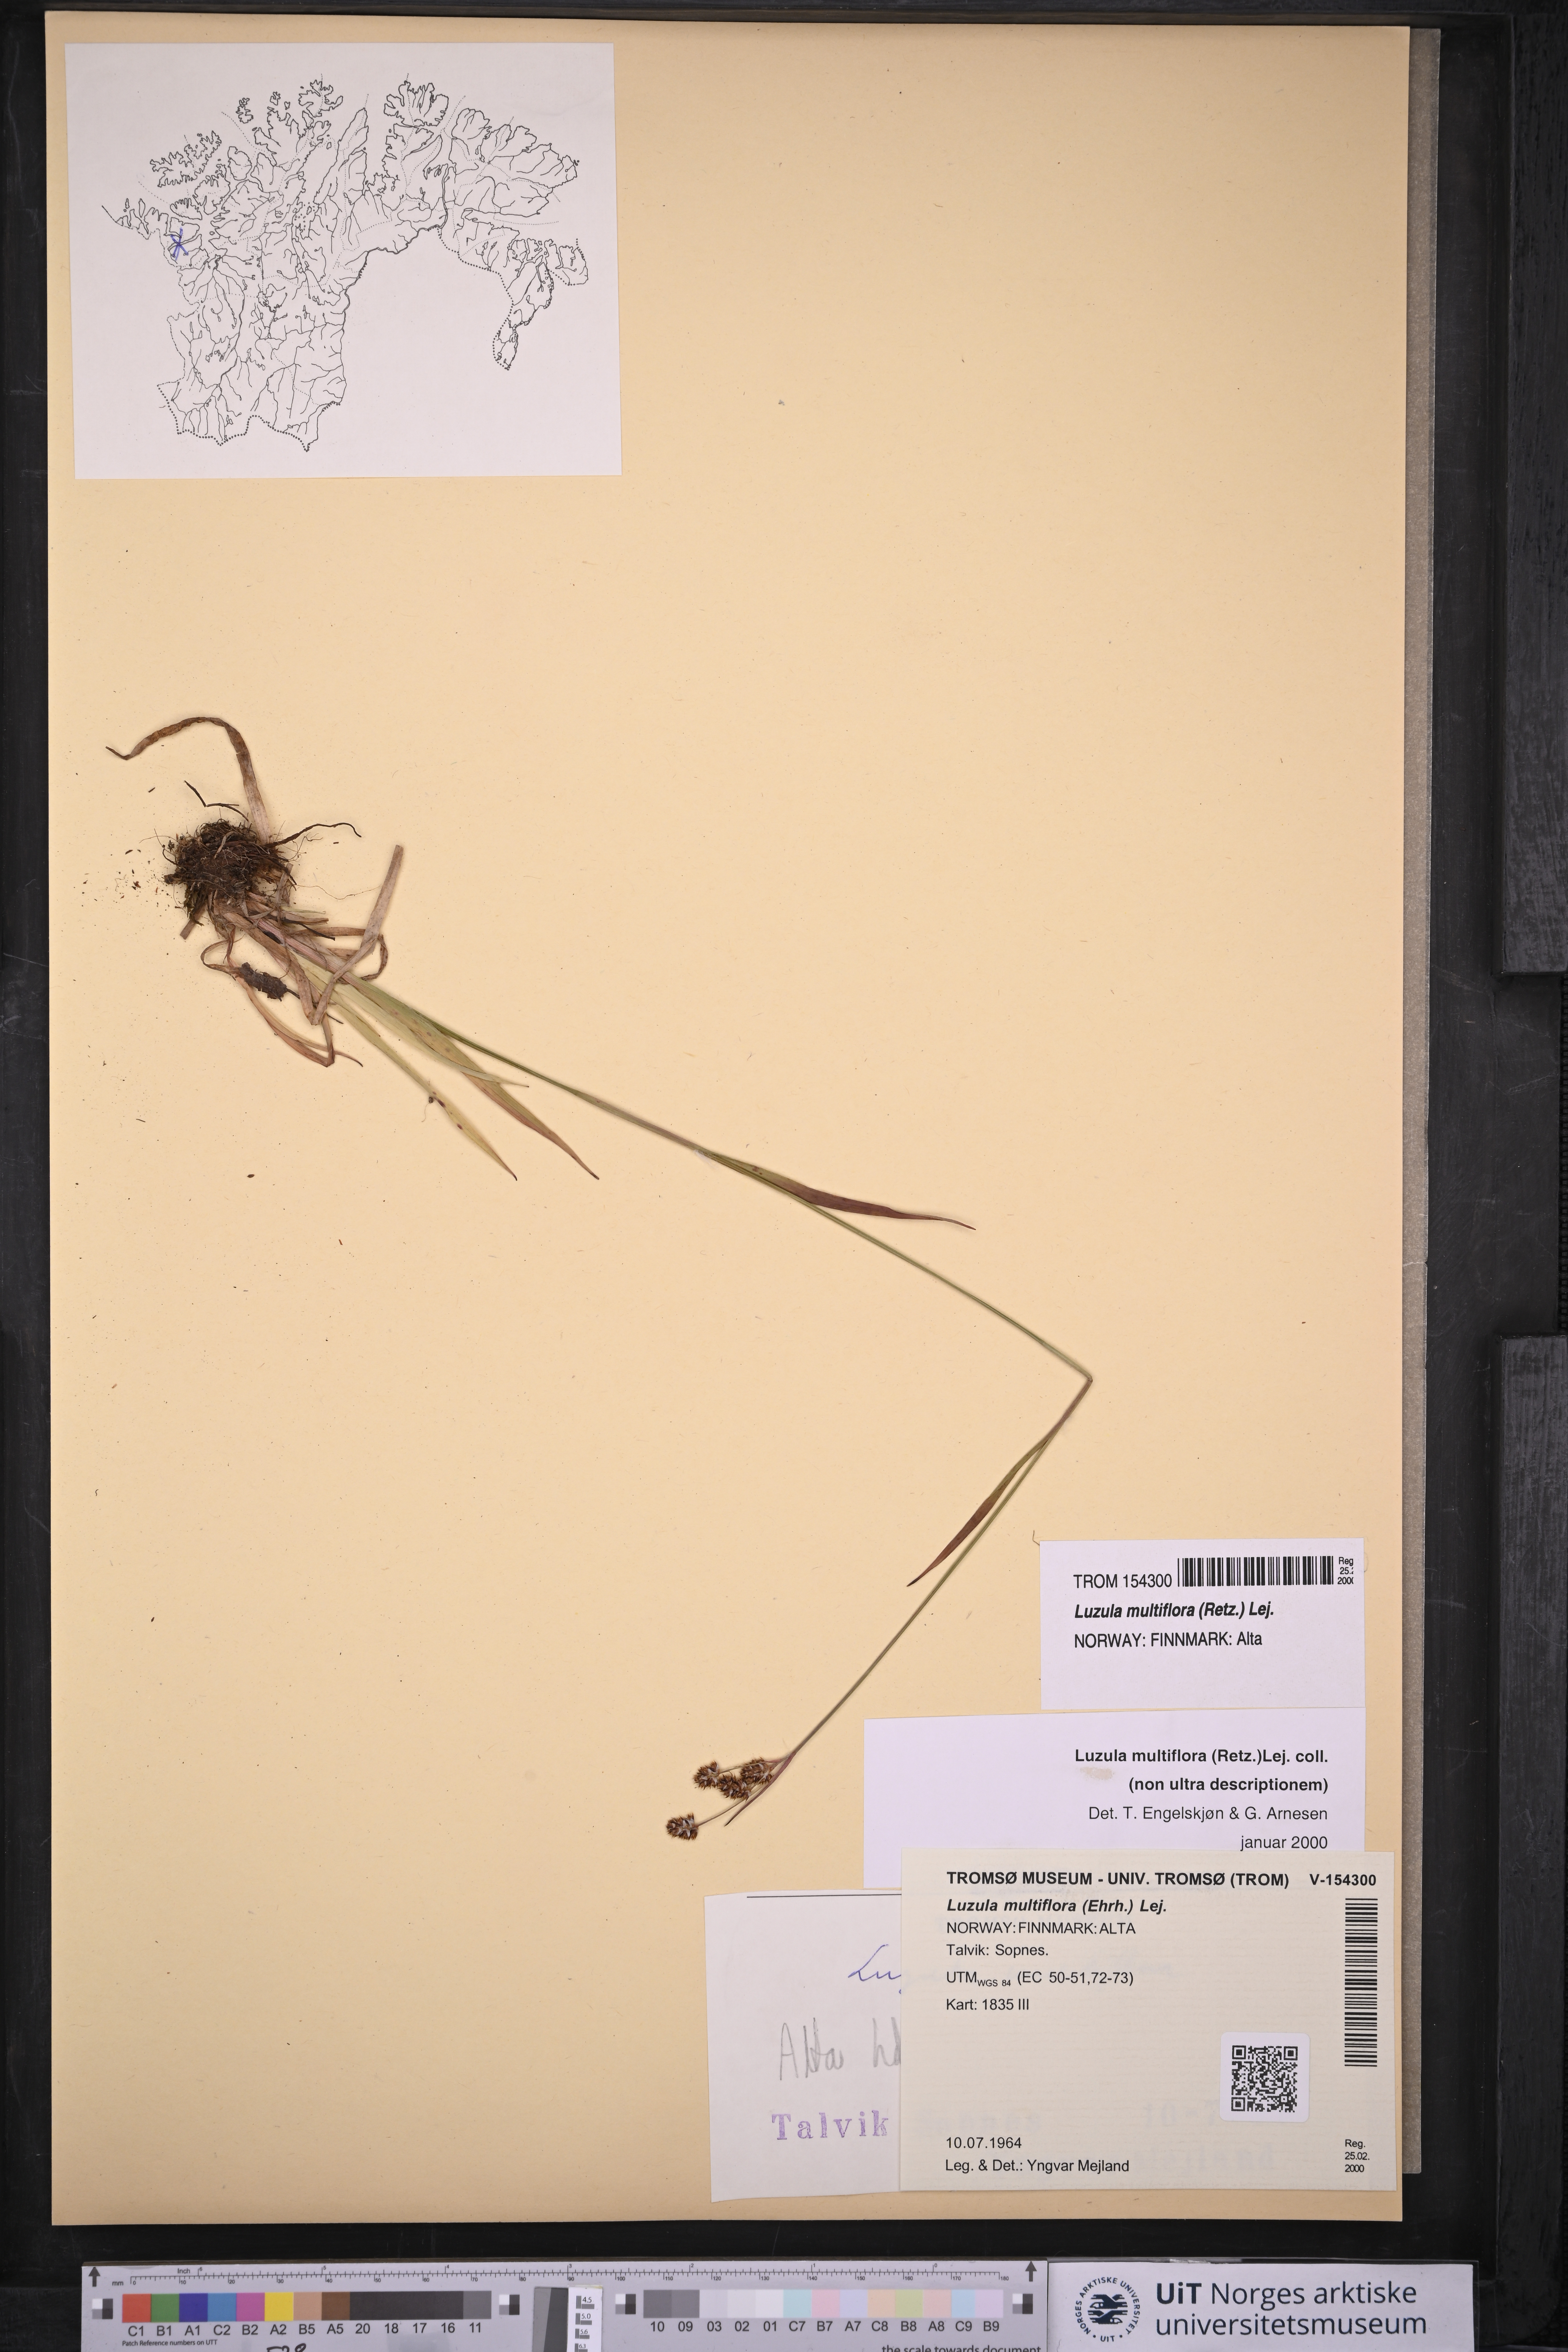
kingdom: Plantae
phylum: Tracheophyta
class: Liliopsida
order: Poales
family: Juncaceae
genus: Luzula
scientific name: Luzula multiflora
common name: Heath wood-rush
